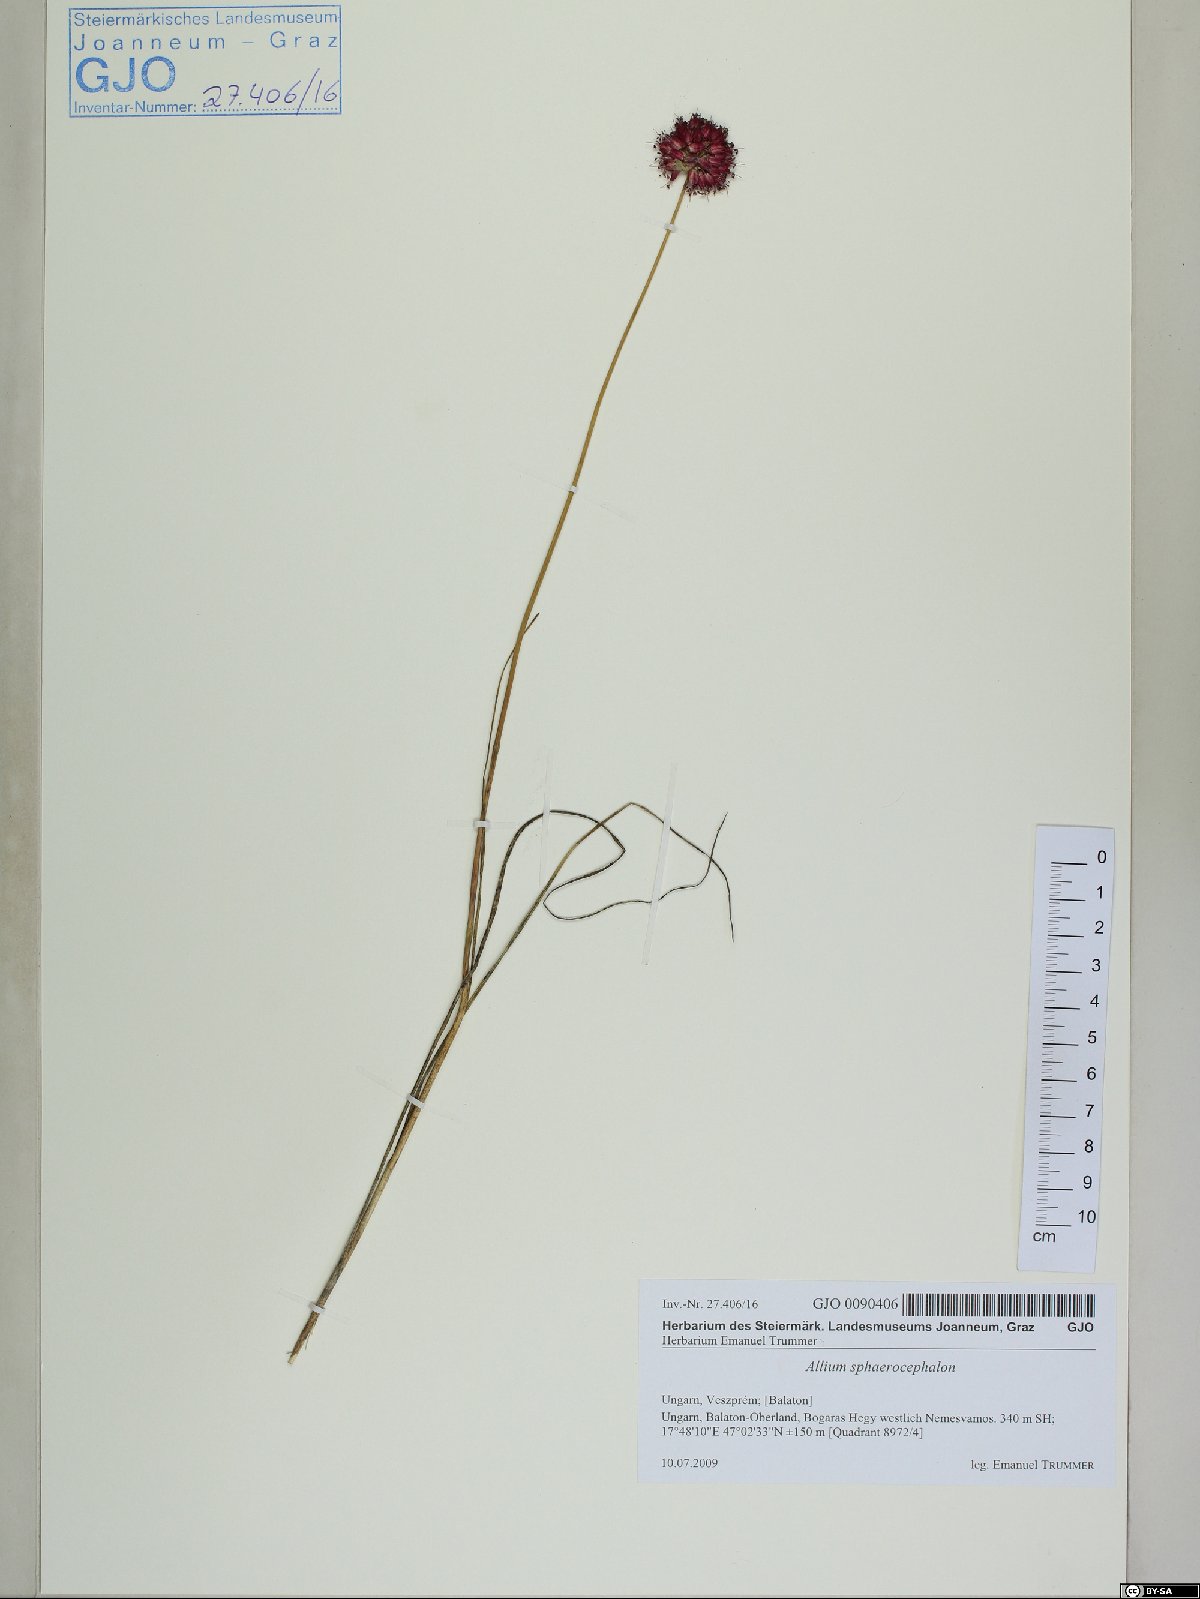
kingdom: Plantae
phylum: Tracheophyta
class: Liliopsida
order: Asparagales
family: Amaryllidaceae
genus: Allium
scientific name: Allium sphaerocephalon
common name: Round-headed leek
